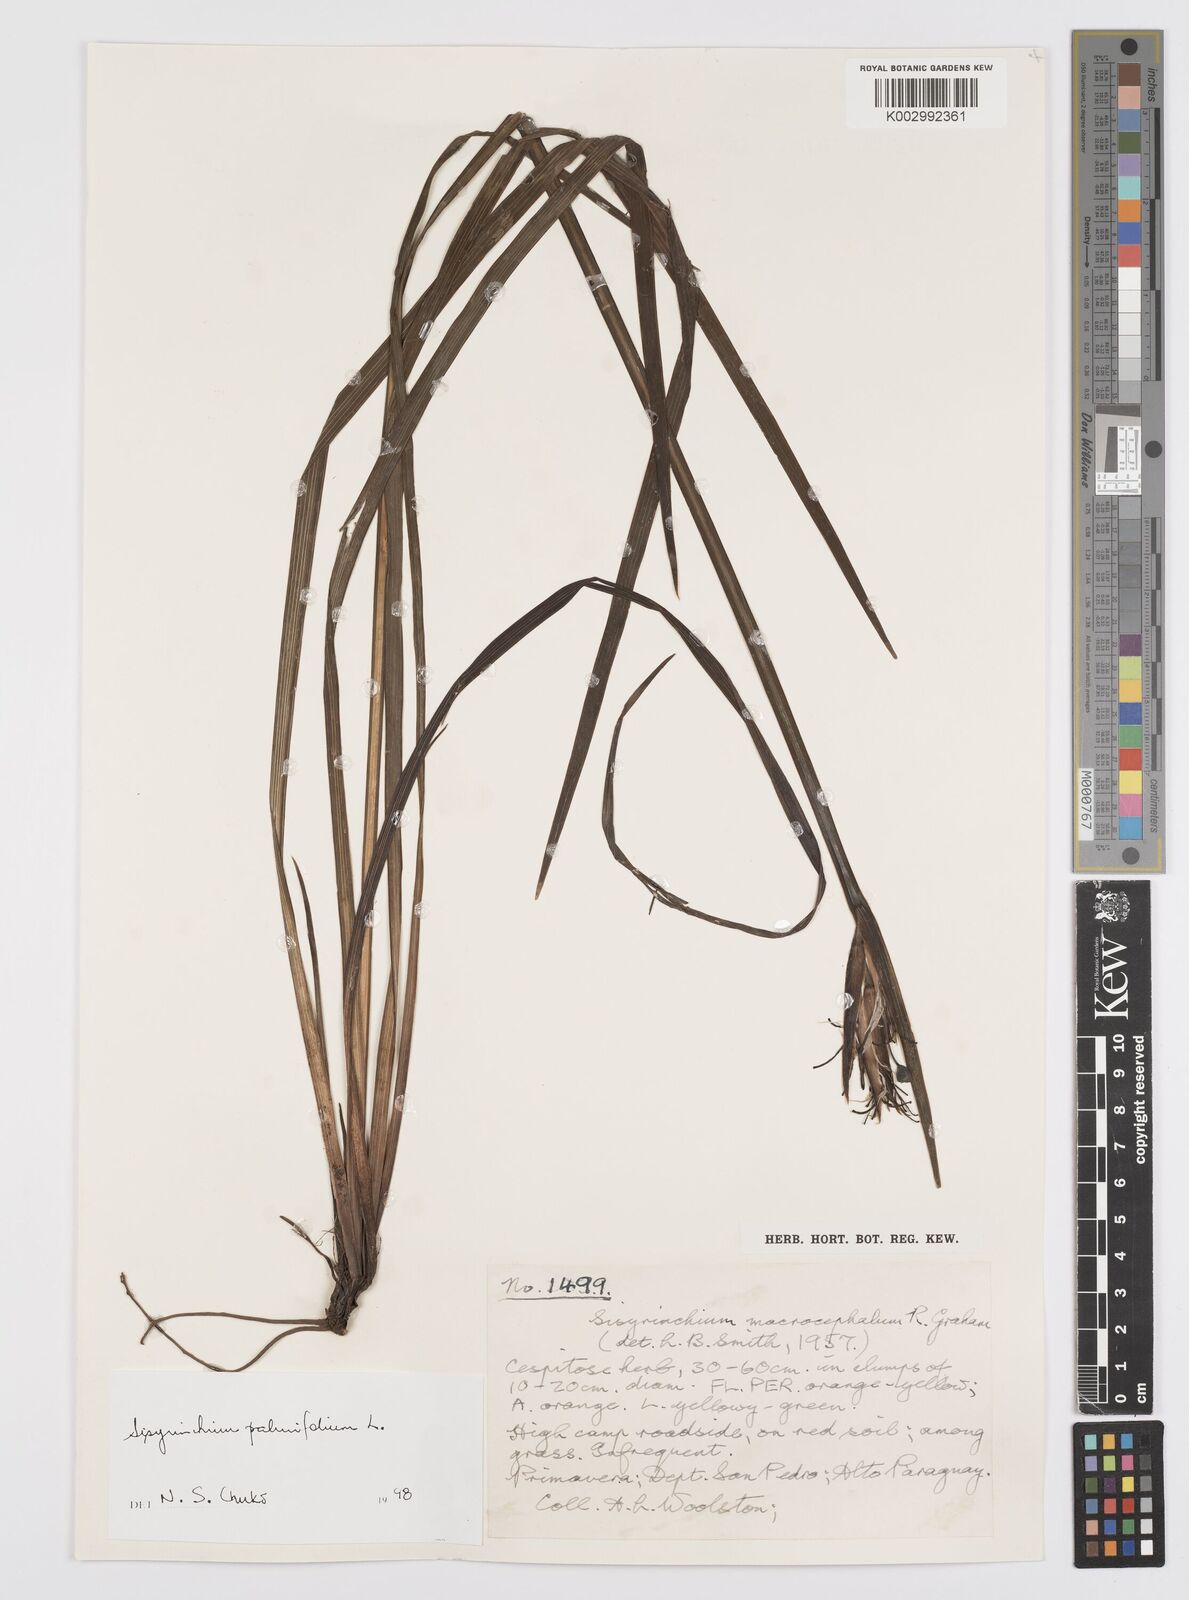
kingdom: Plantae
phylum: Tracheophyta
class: Liliopsida
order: Asparagales
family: Iridaceae
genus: Sisyrinchium
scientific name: Sisyrinchium palmifolium
